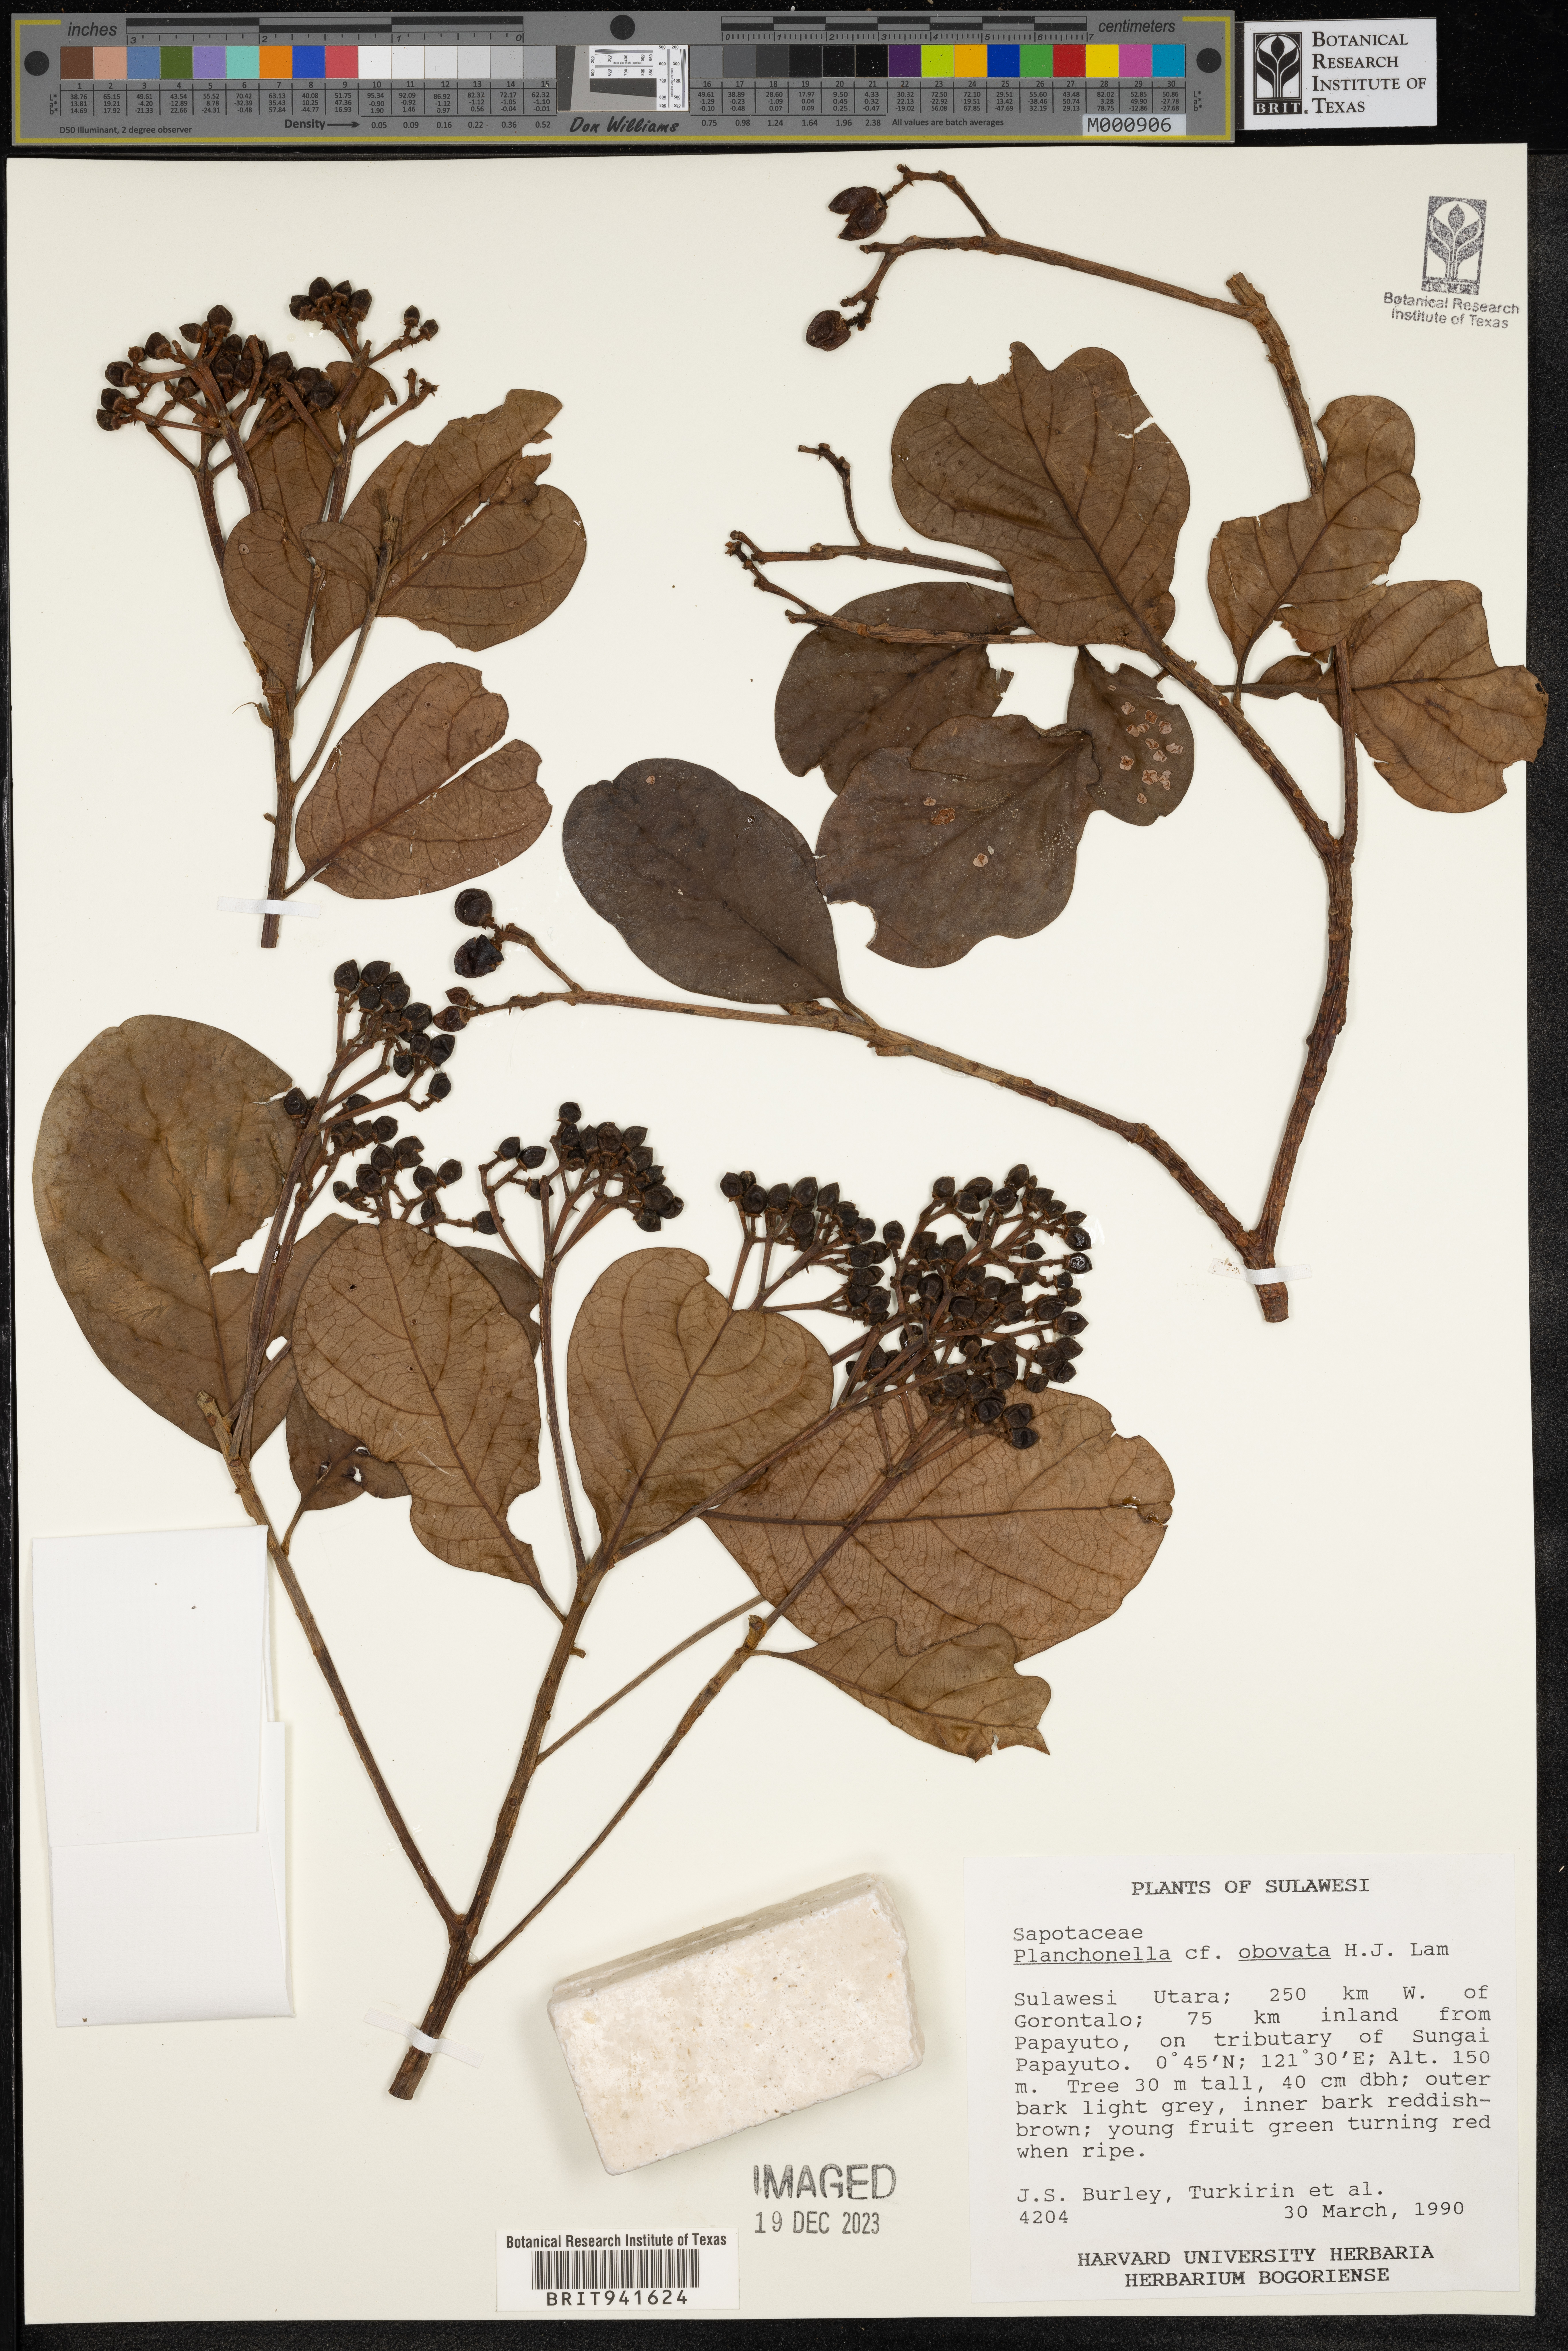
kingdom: Plantae
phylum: Tracheophyta
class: Magnoliopsida
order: Ericales
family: Sapotaceae
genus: Planchonella
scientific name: Planchonella
